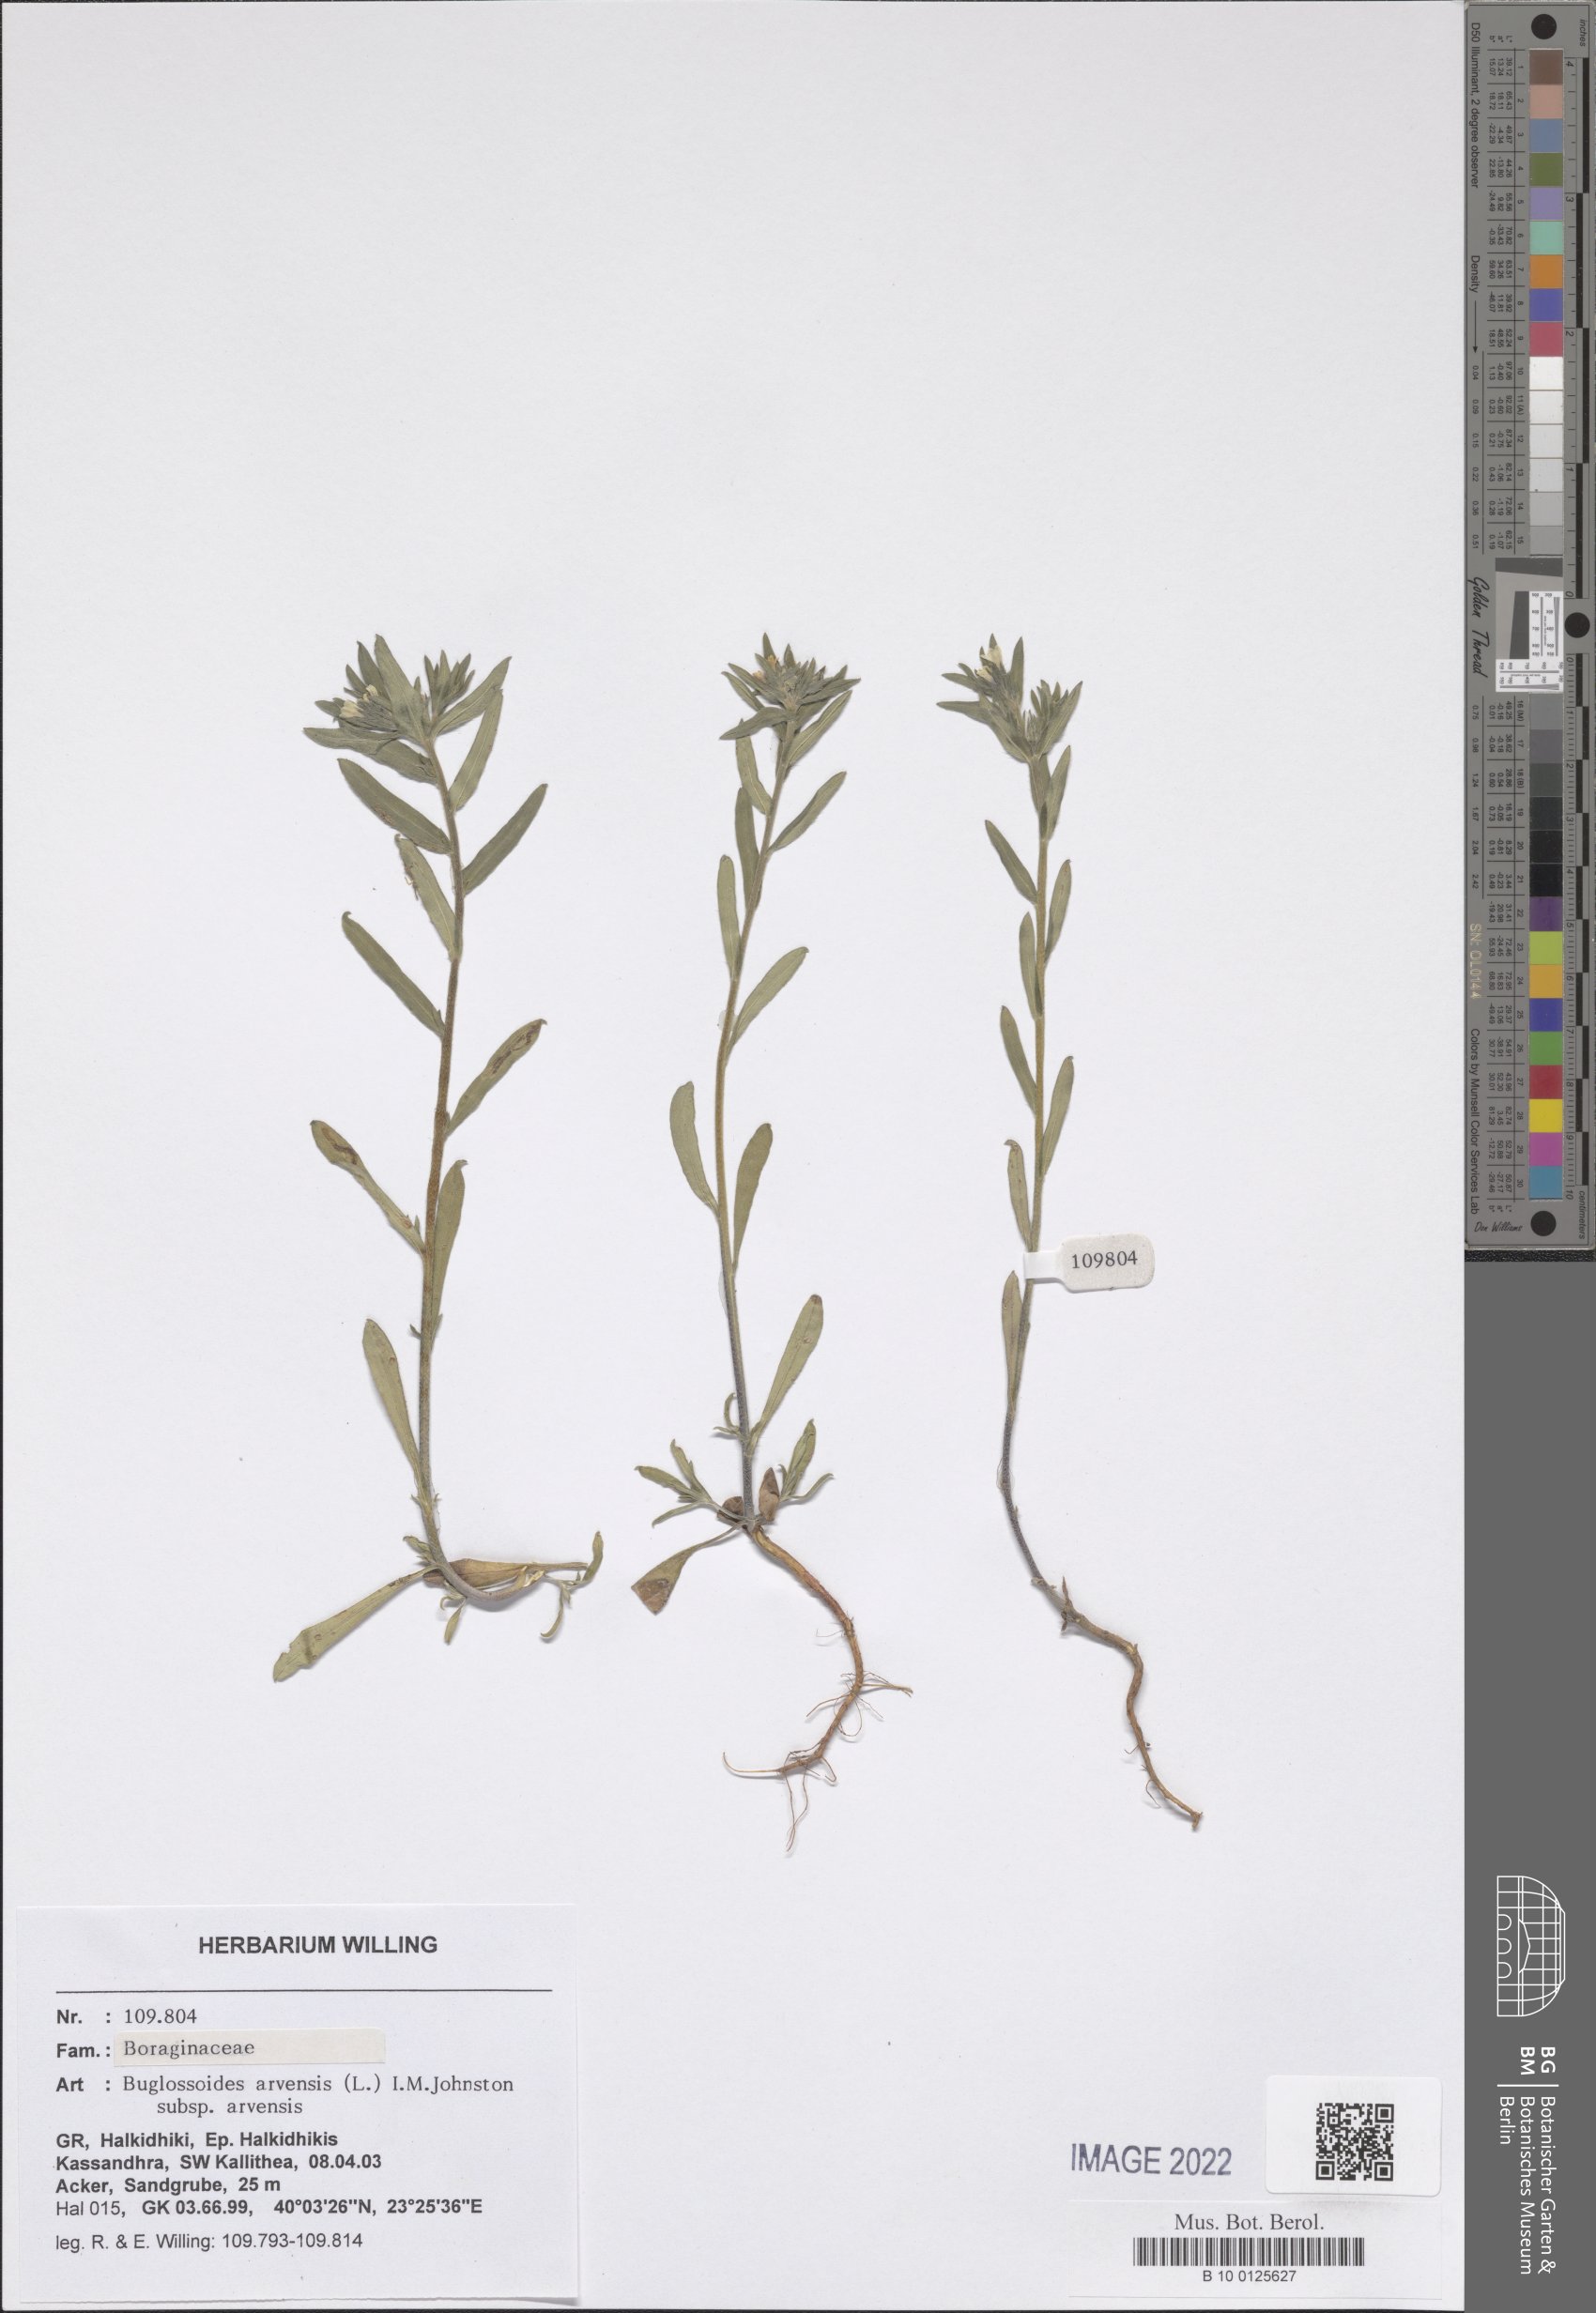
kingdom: Plantae
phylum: Tracheophyta
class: Magnoliopsida
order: Boraginales
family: Boraginaceae
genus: Buglossoides
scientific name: Buglossoides arvensis
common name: Corn gromwell
